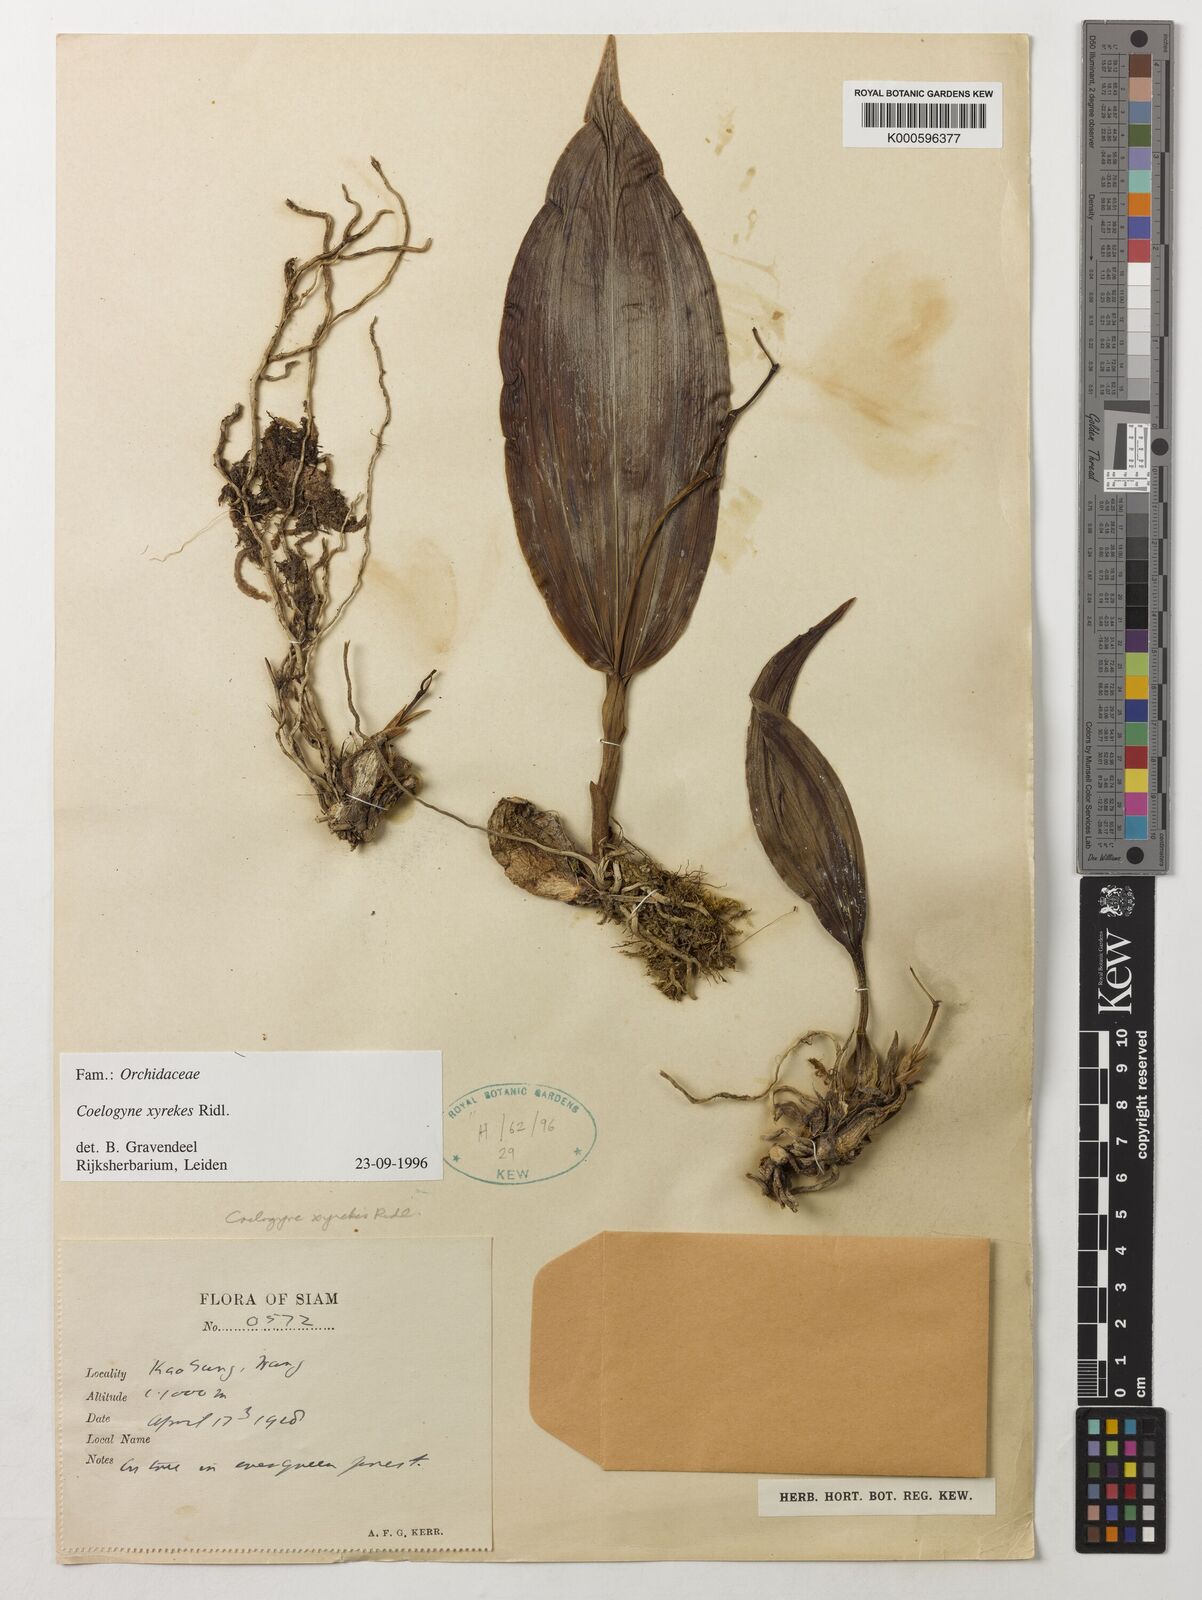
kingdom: Plantae
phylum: Tracheophyta
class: Liliopsida
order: Asparagales
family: Orchidaceae
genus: Coelogyne
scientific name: Coelogyne xyrekes
